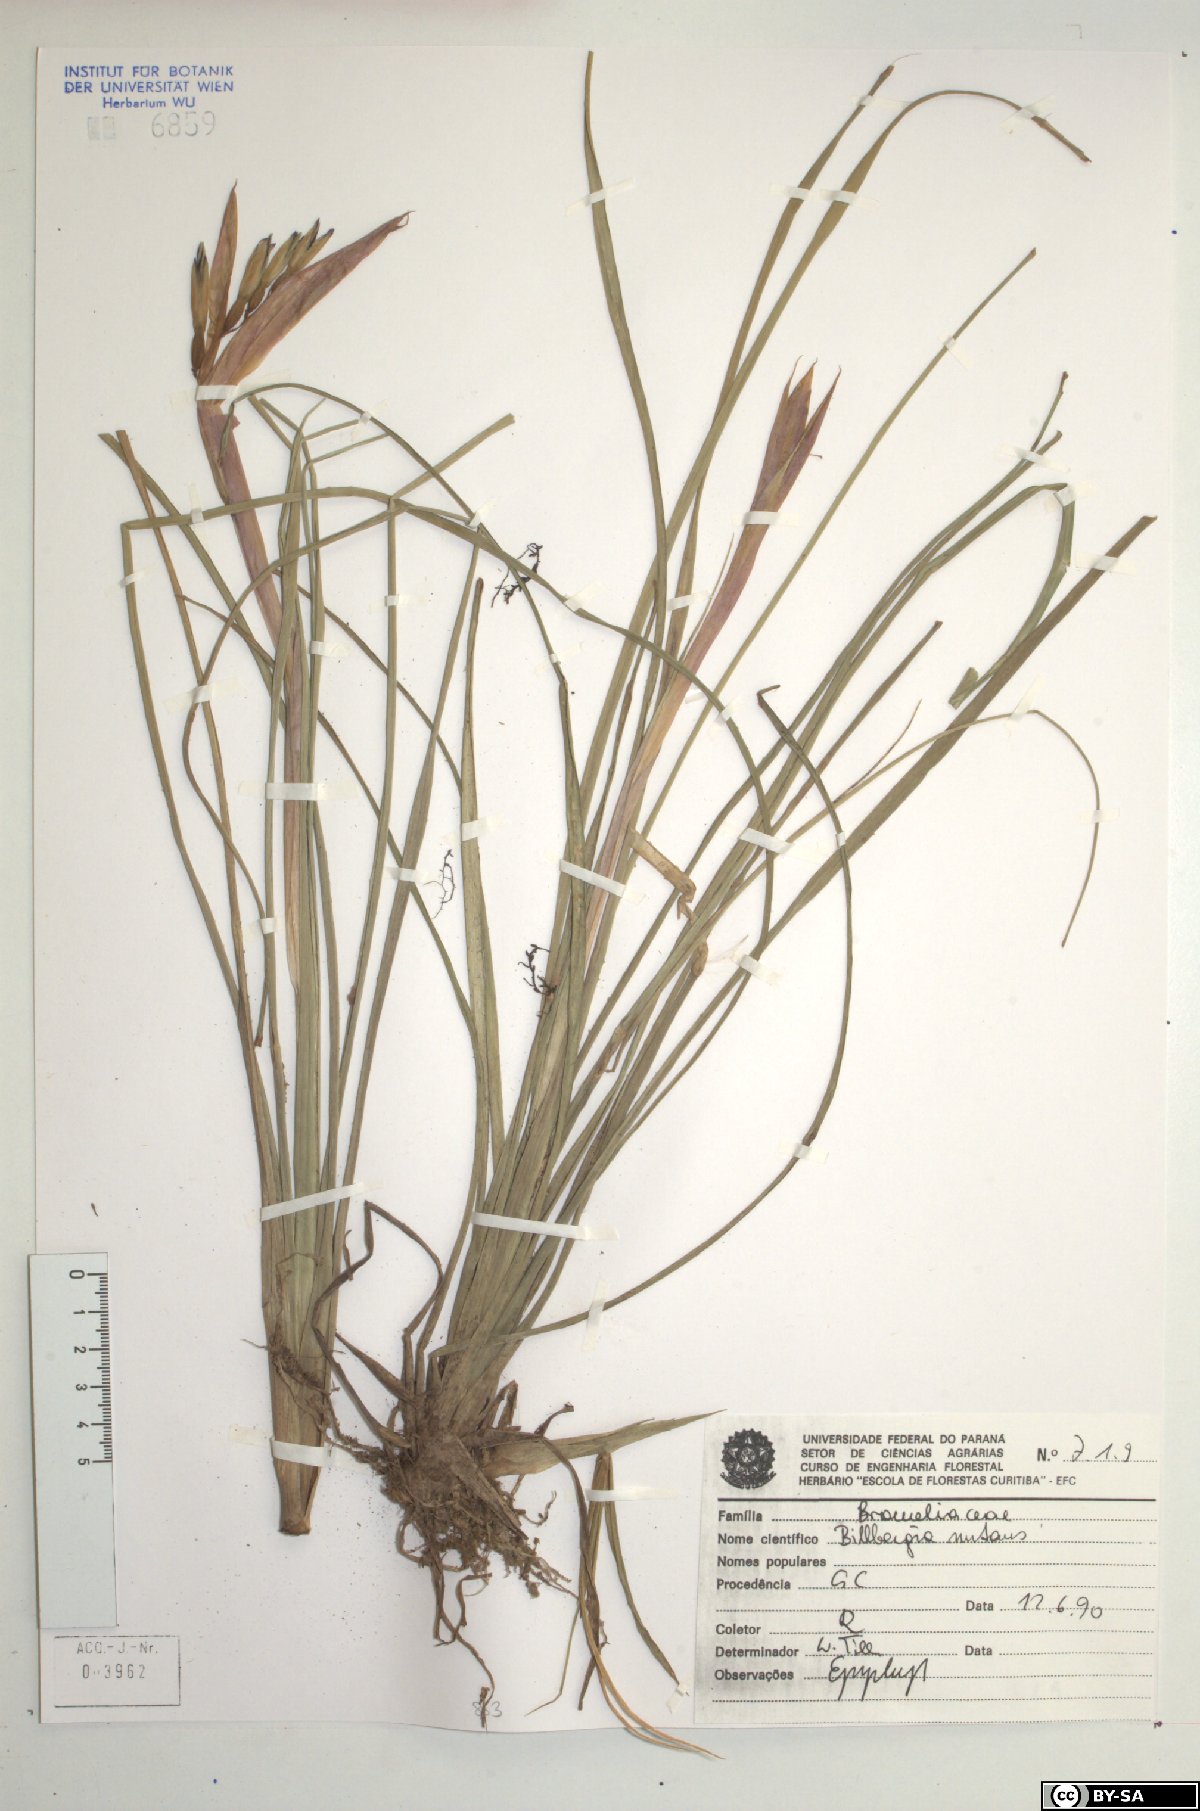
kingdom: Plantae
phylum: Tracheophyta
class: Liliopsida
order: Poales
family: Bromeliaceae
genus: Billbergia
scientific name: Billbergia nutans
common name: Friendship-plant
